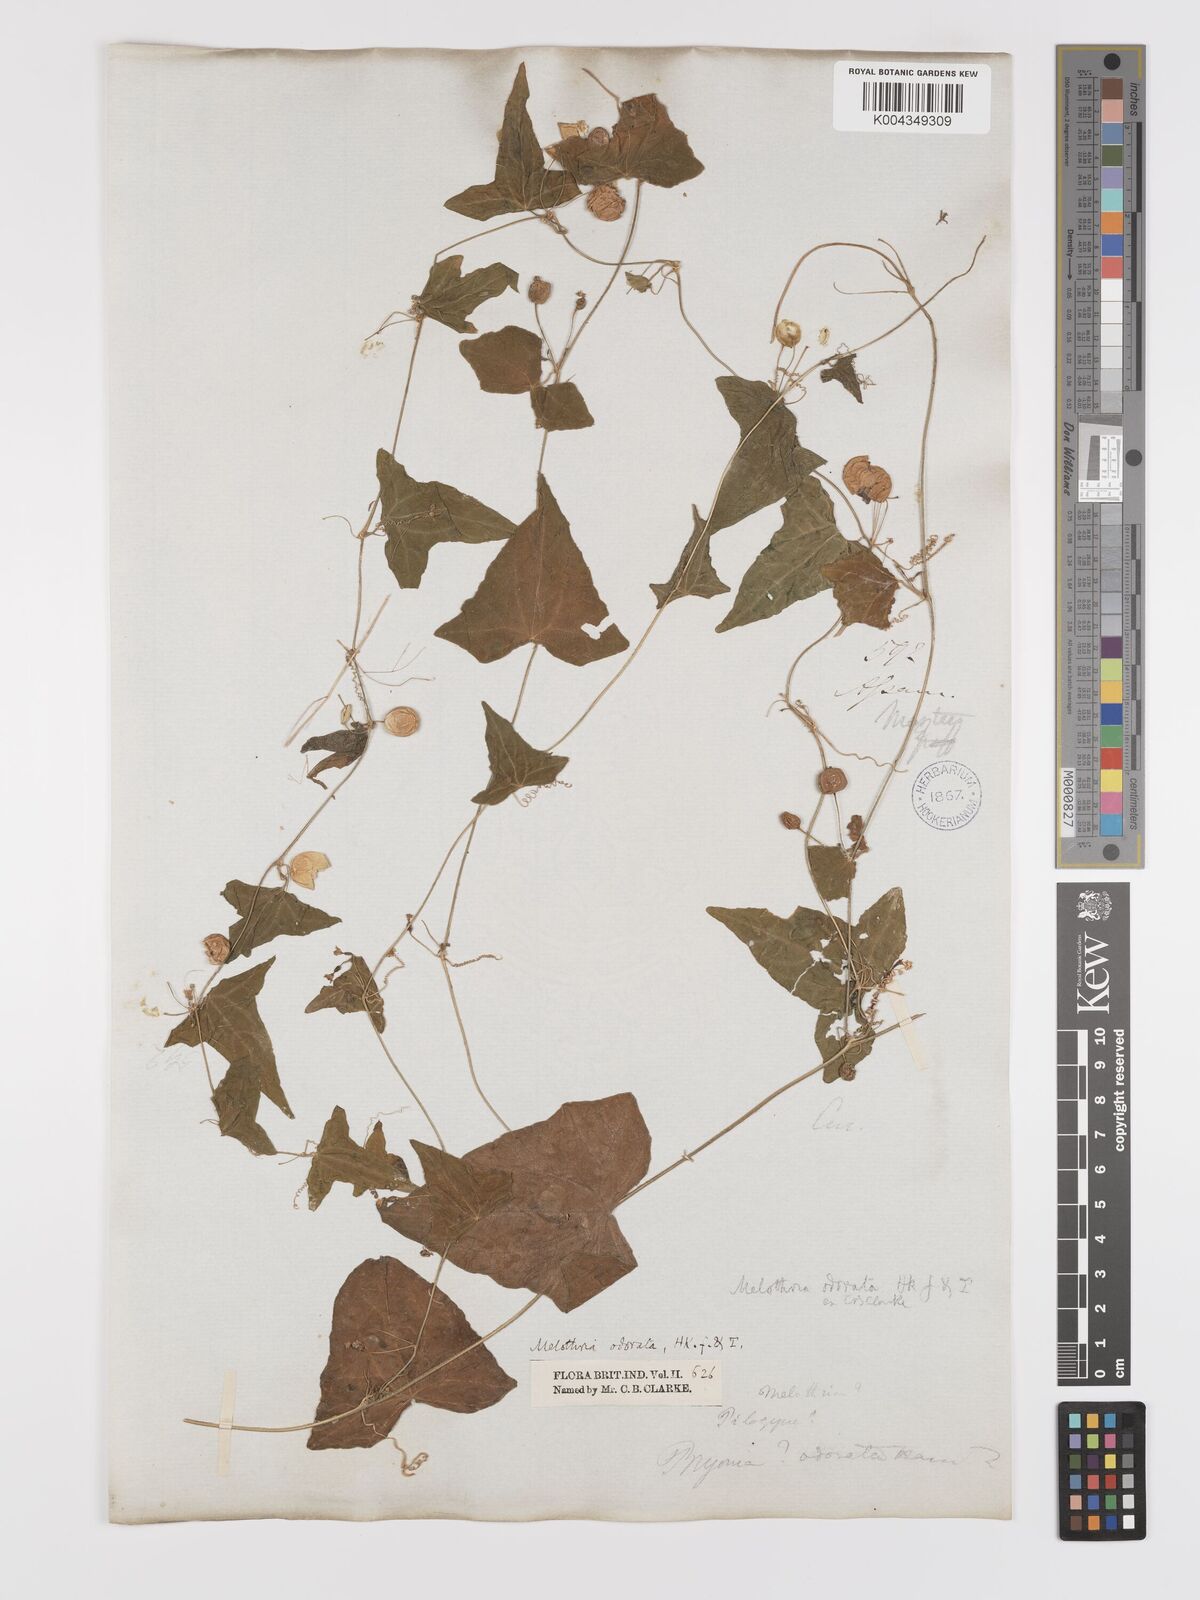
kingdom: Plantae
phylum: Tracheophyta
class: Magnoliopsida
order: Cucurbitales
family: Cucurbitaceae
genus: Zehneria
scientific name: Zehneria odorata
